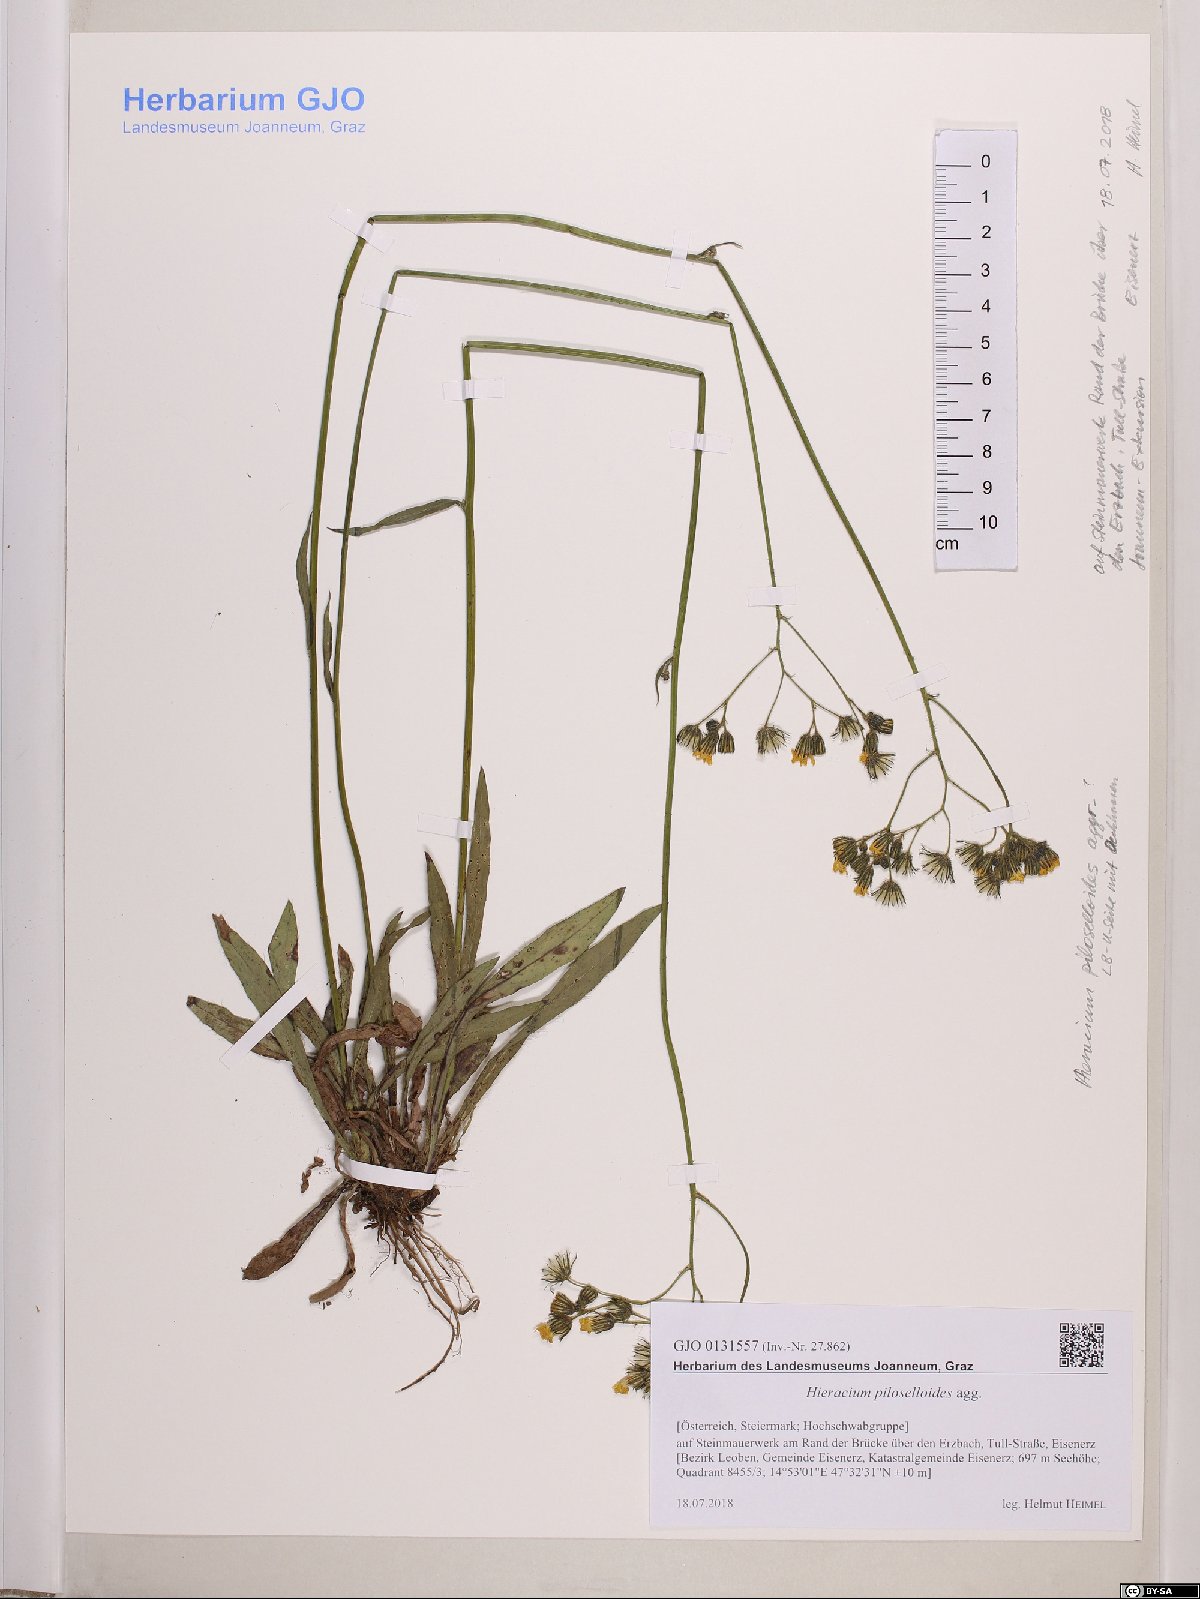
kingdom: Plantae
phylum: Tracheophyta
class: Magnoliopsida
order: Asterales
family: Asteraceae
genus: Pilosella
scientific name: Pilosella piloselloides
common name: Glaucous king-devil
